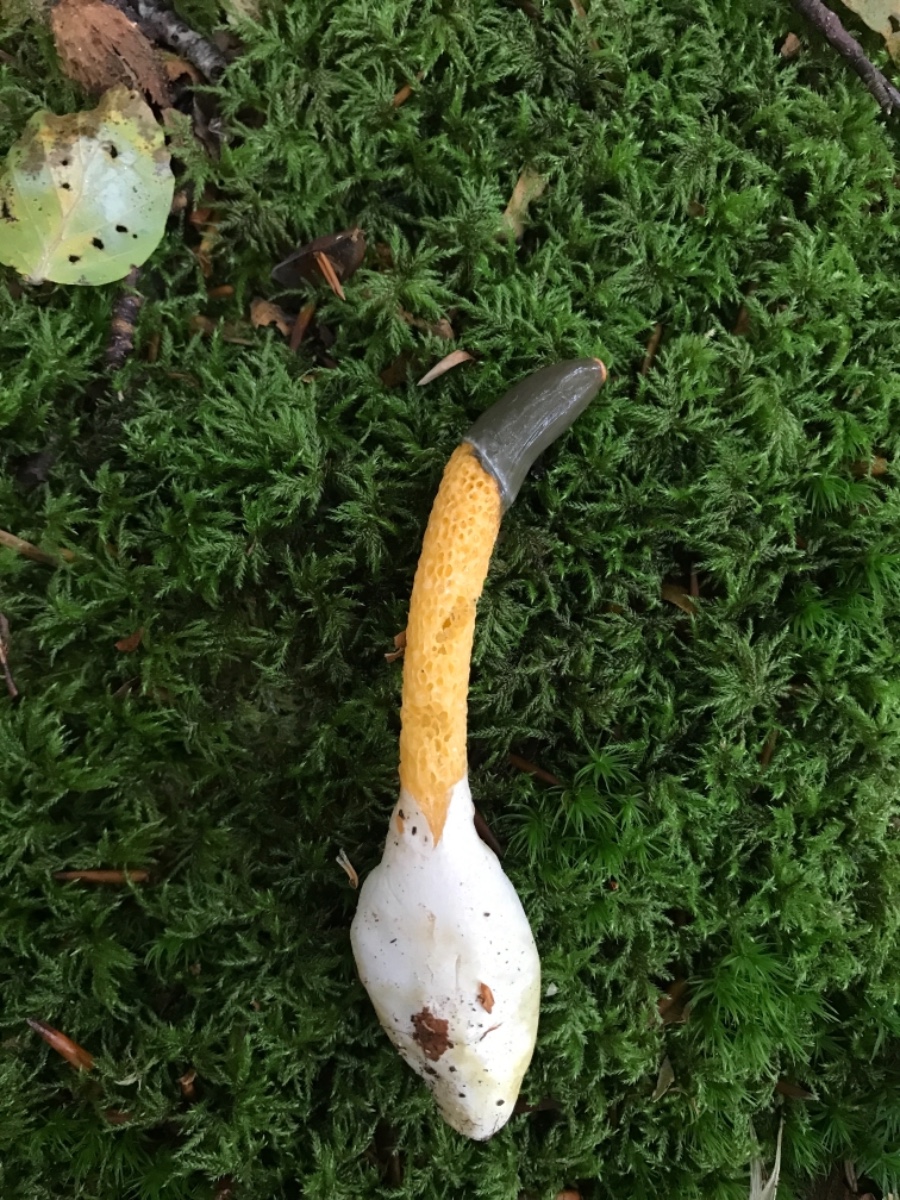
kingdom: Fungi
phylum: Basidiomycota
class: Agaricomycetes
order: Phallales
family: Phallaceae
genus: Mutinus
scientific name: Mutinus caninus
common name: hunde-stinksvamp
